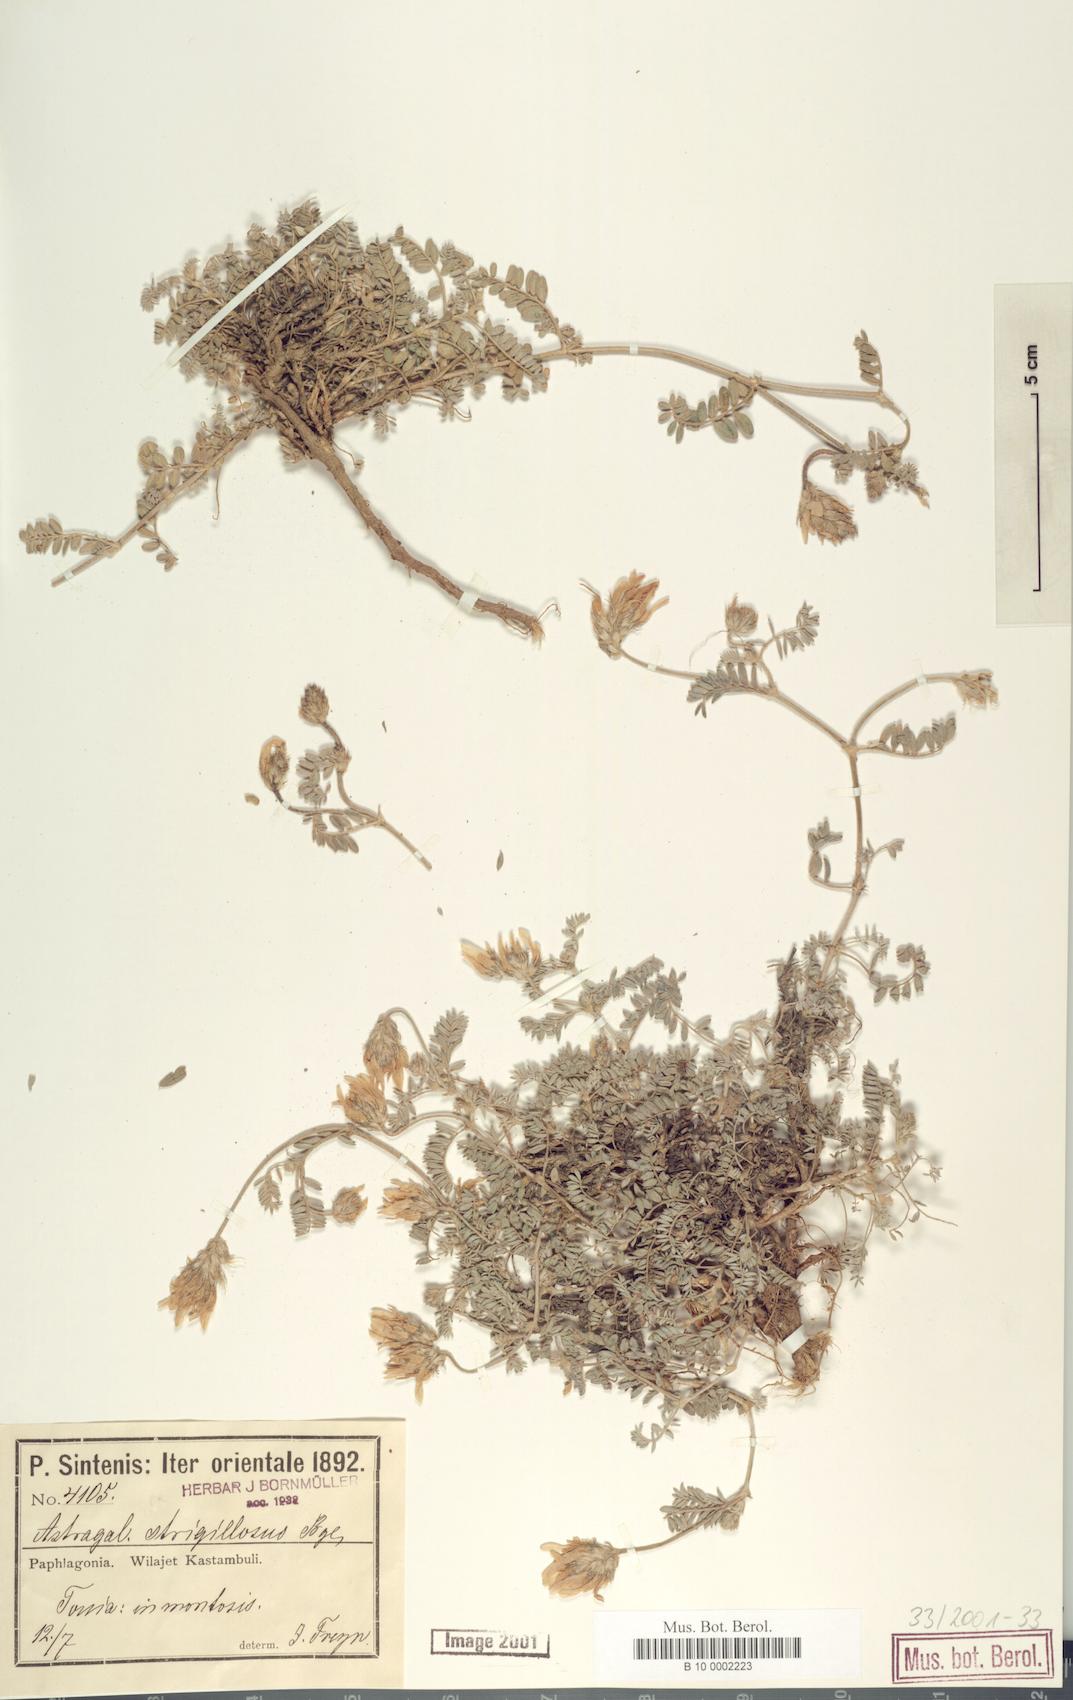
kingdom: Plantae
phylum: Tracheophyta
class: Magnoliopsida
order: Fabales
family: Fabaceae
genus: Astragalus
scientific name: Astragalus strigillosus
